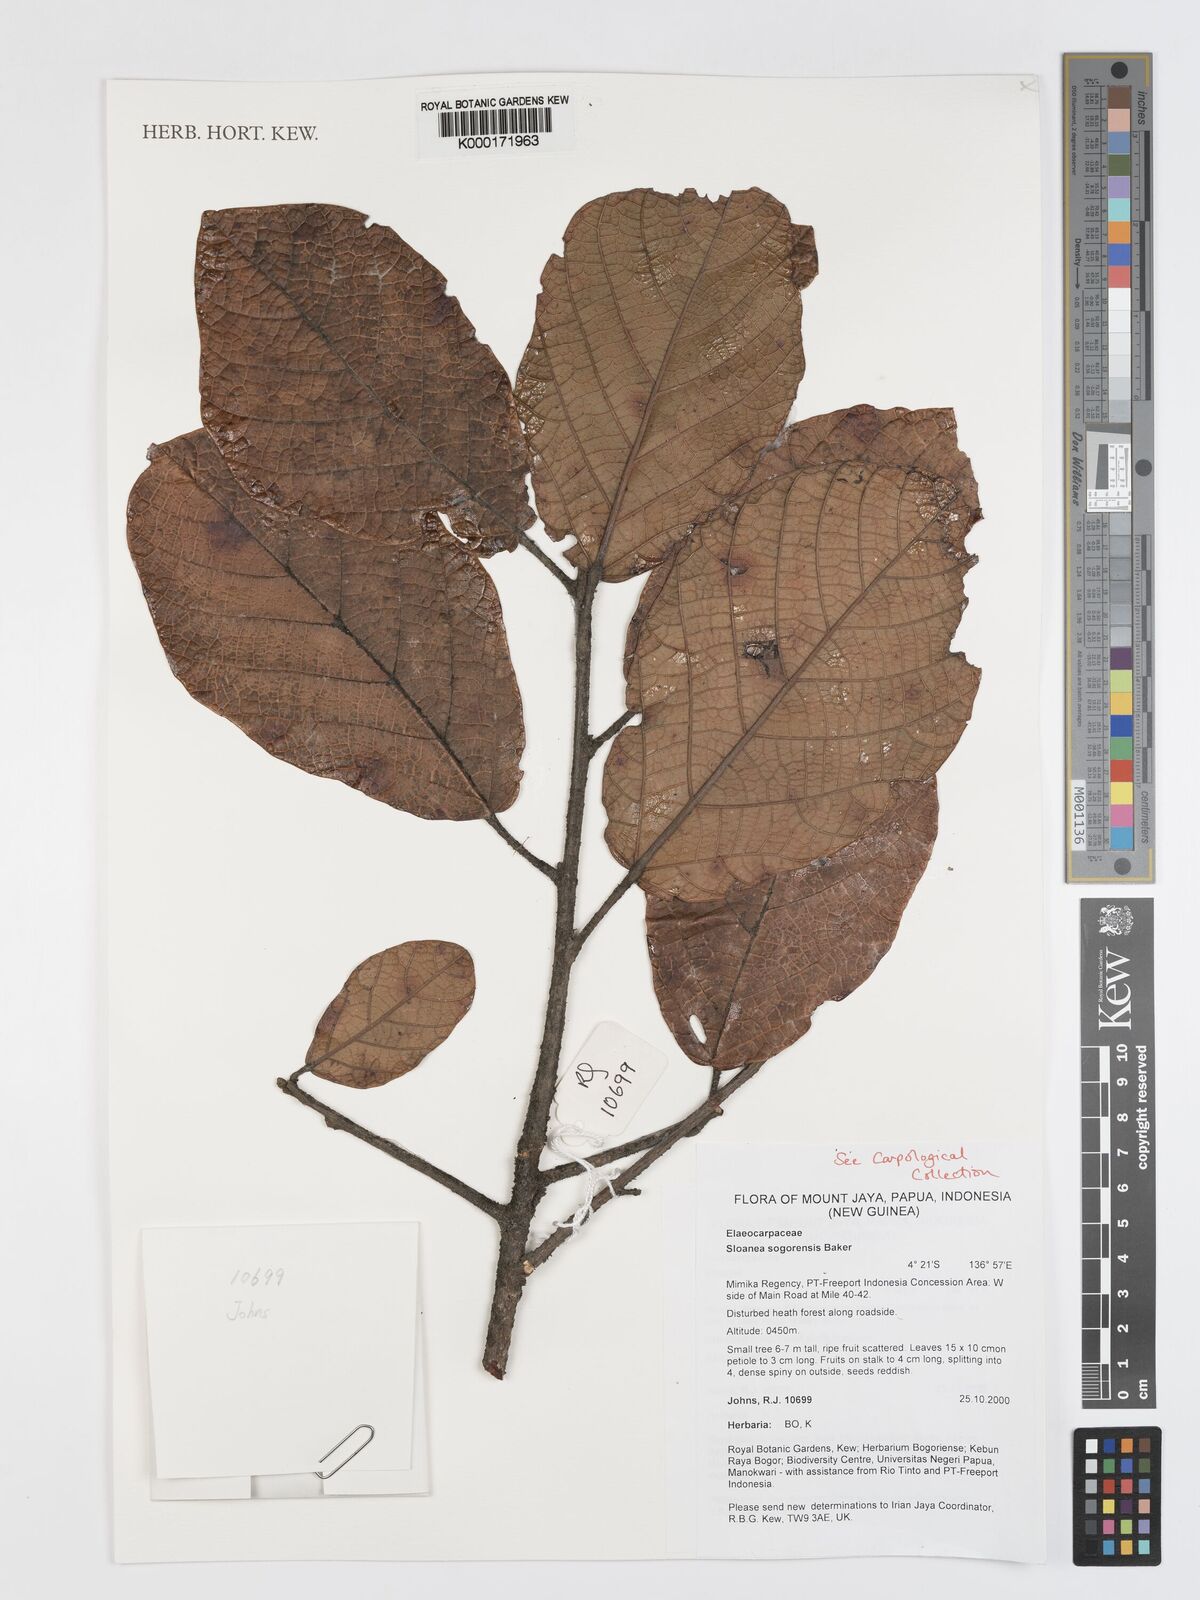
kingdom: Plantae
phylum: Tracheophyta
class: Magnoliopsida
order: Oxalidales
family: Elaeocarpaceae
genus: Sloanea
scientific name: Sloanea sogerensis
